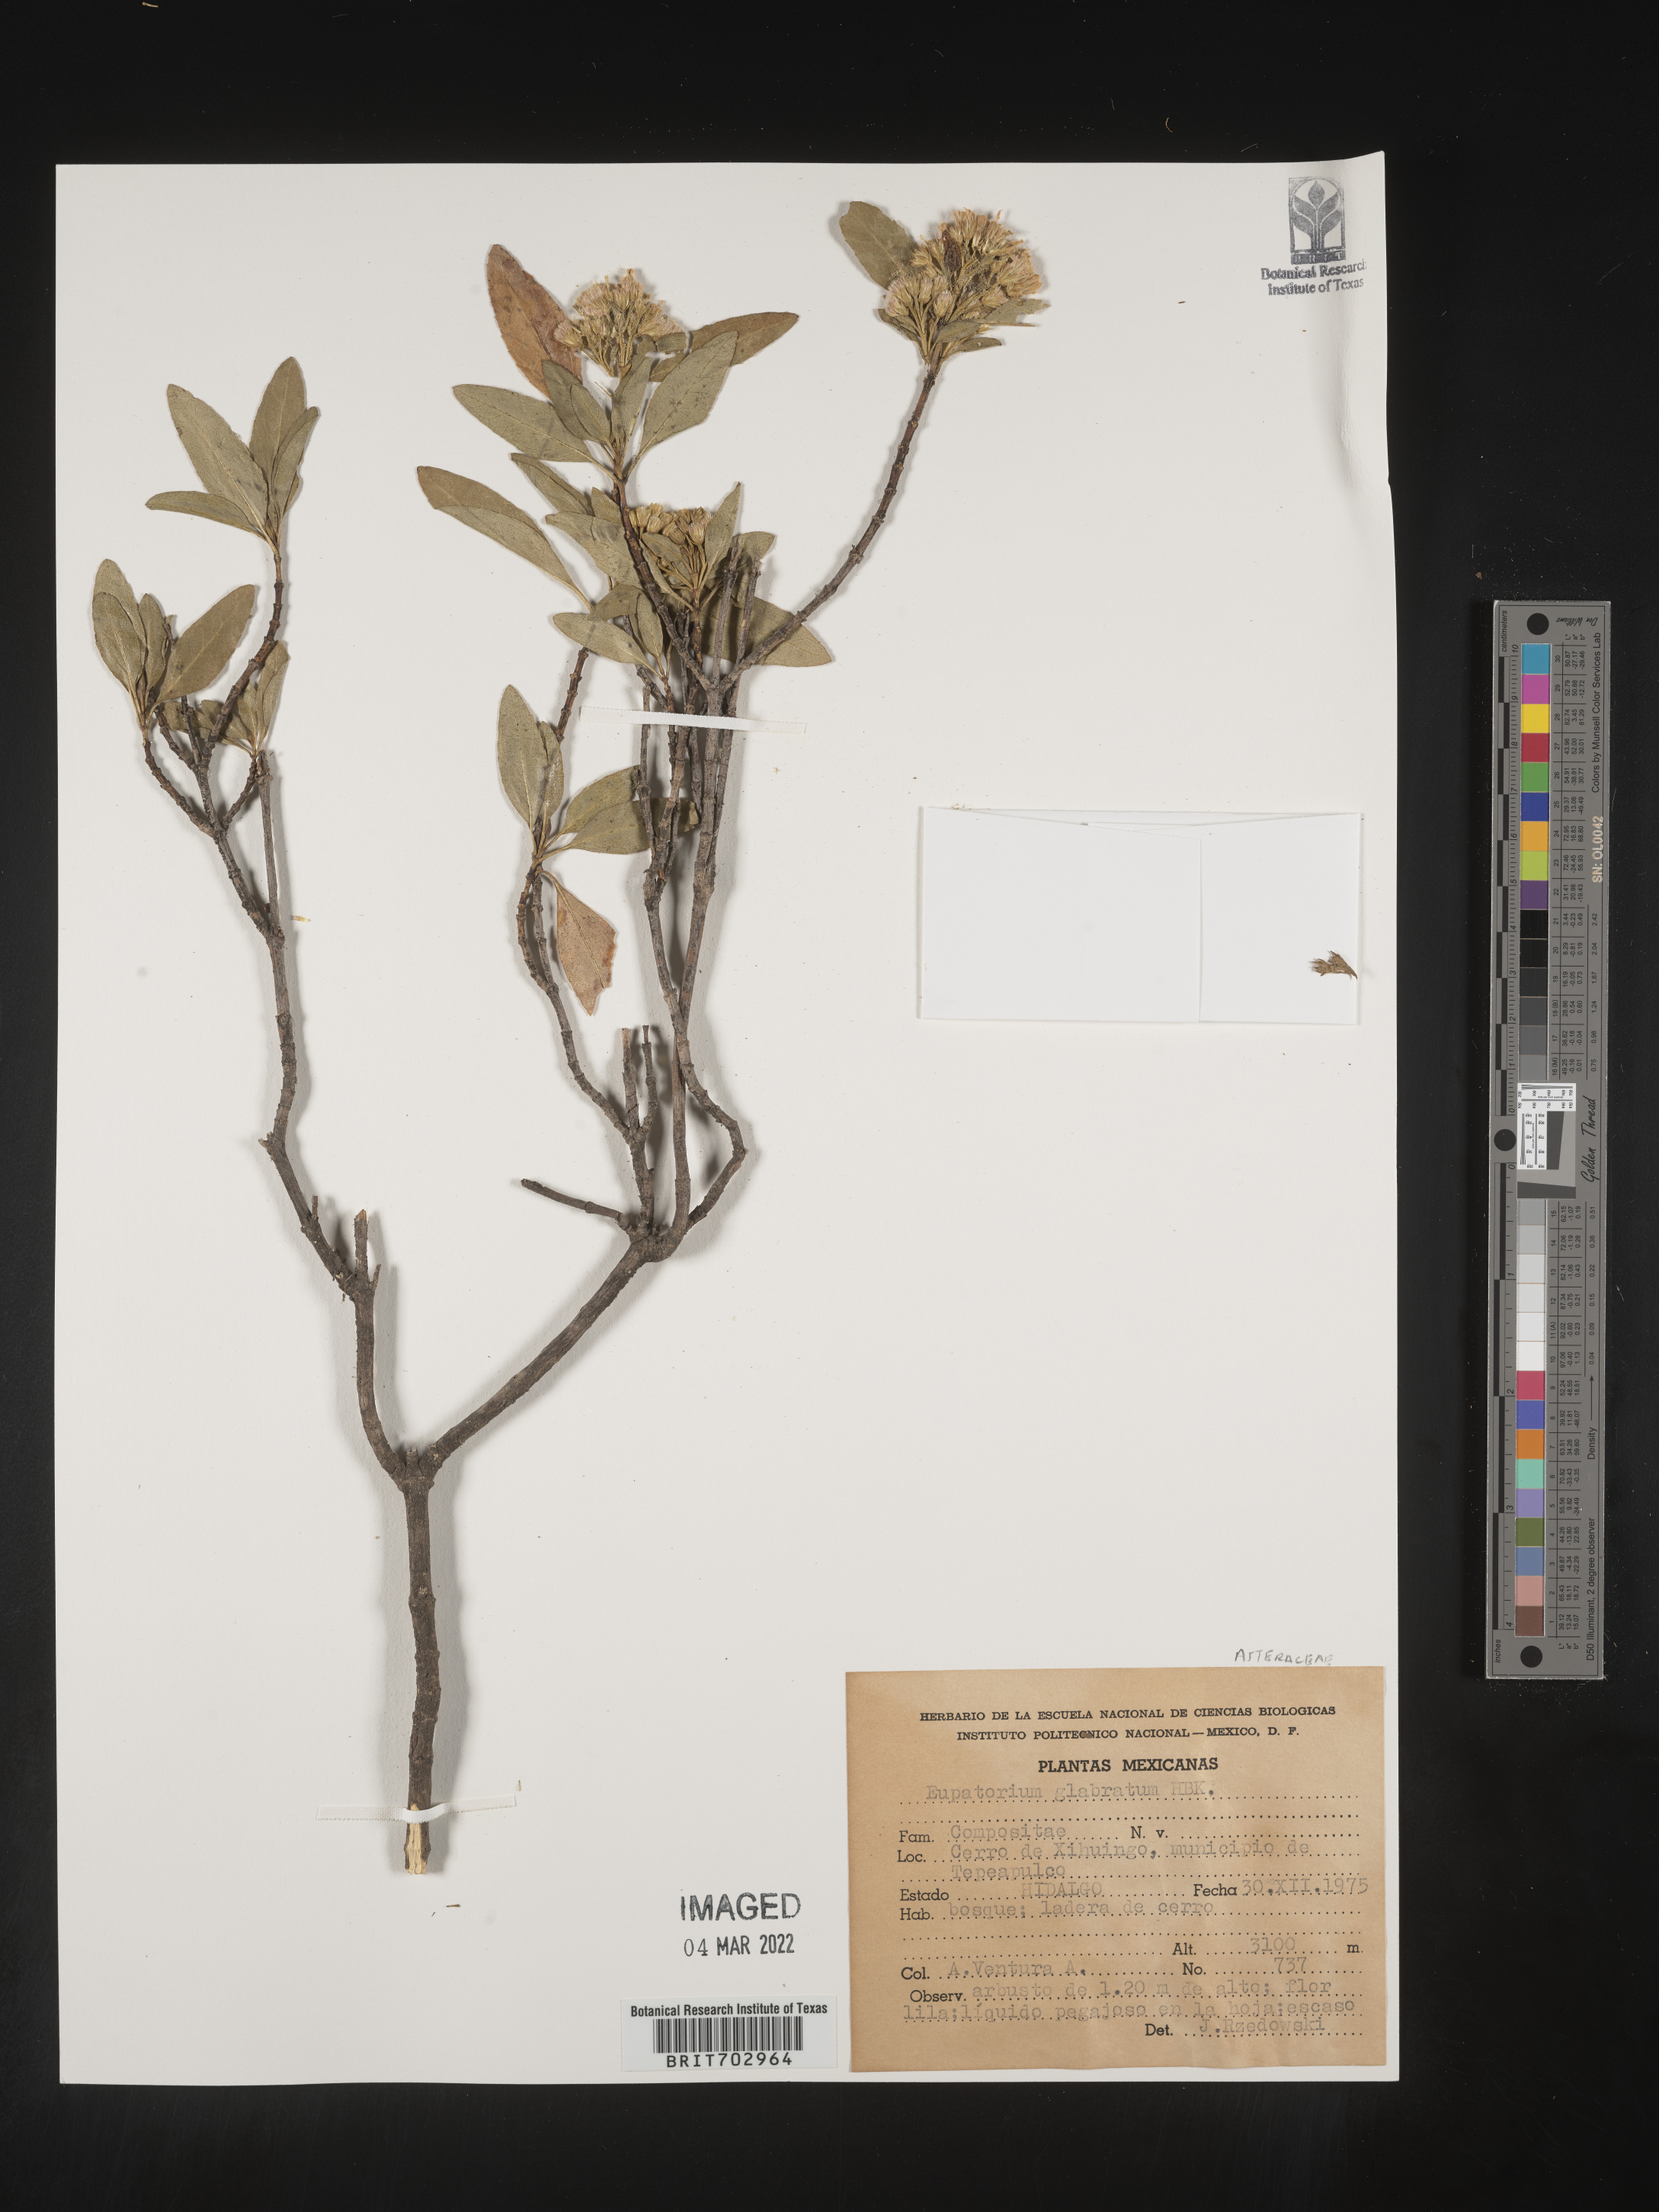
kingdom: Plantae
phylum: Tracheophyta
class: Magnoliopsida
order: Asterales
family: Asteraceae
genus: Eupatorium
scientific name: Eupatorium
